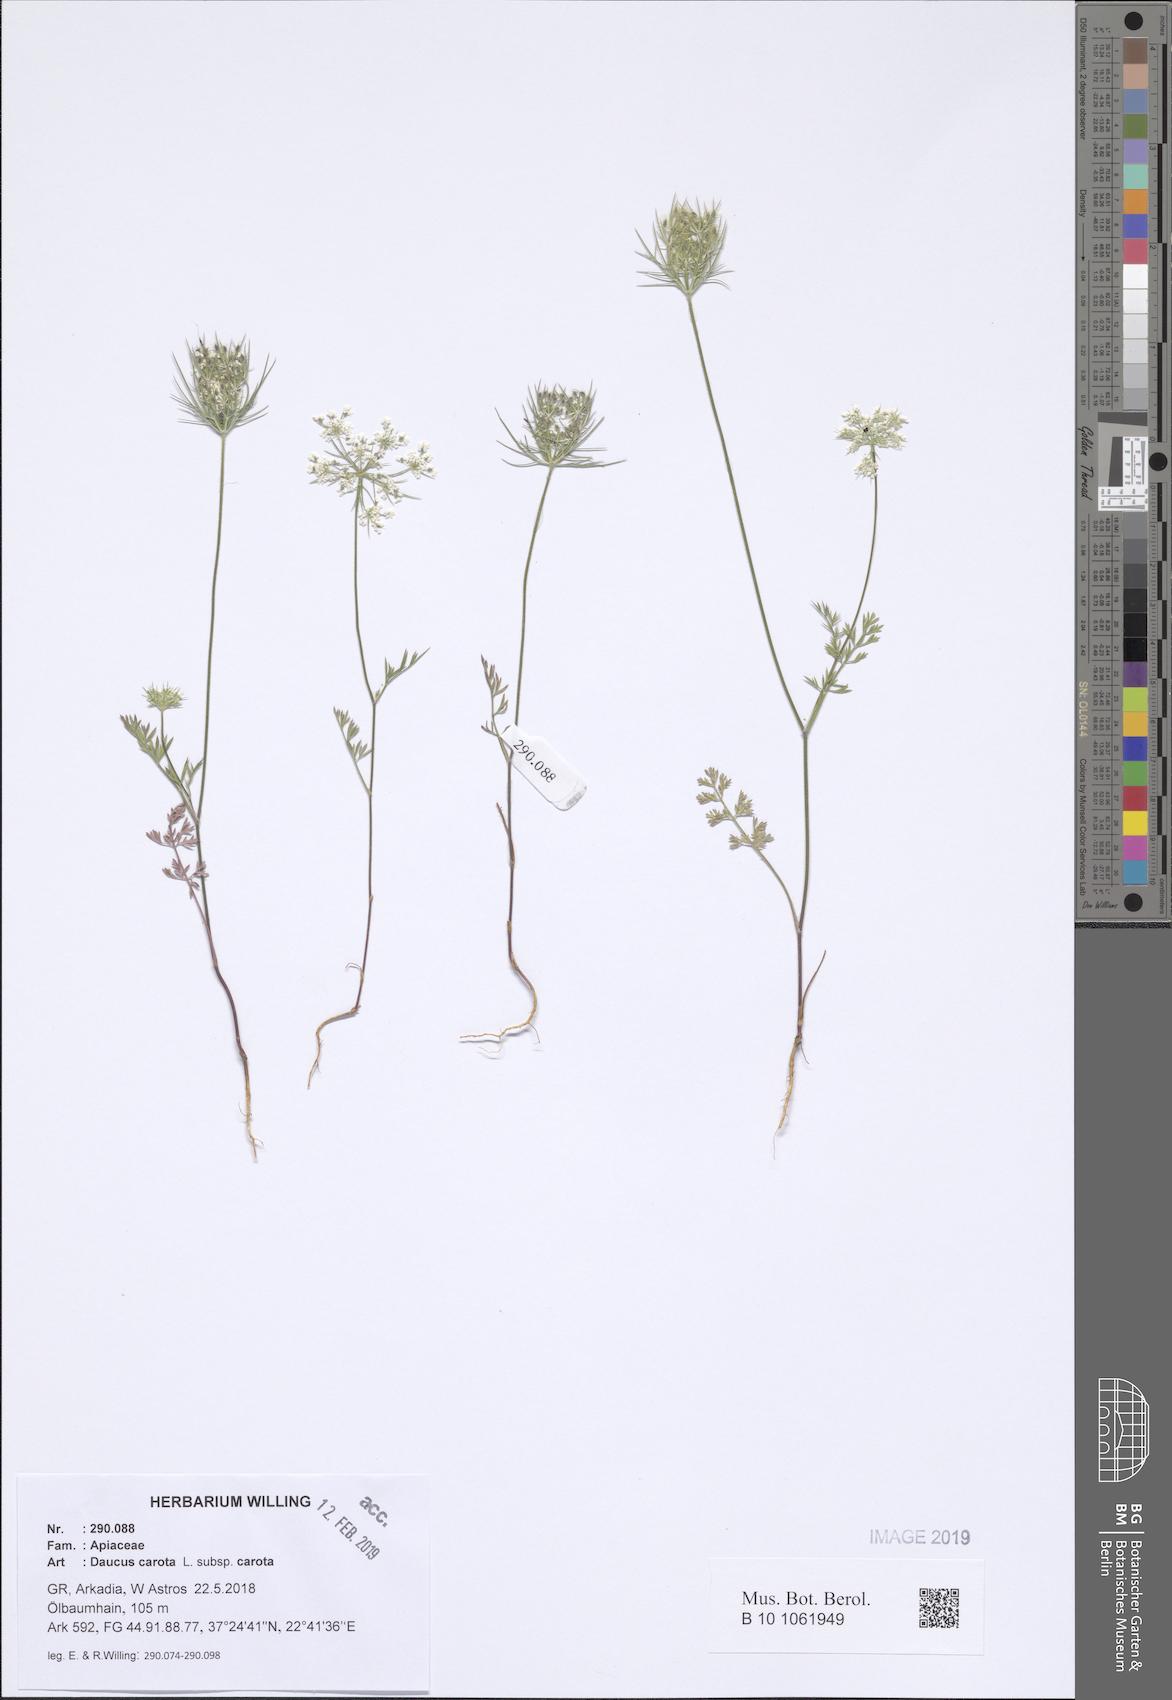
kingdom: Plantae
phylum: Tracheophyta
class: Magnoliopsida
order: Apiales
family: Apiaceae
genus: Daucus
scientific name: Daucus carota
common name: Wild carrot
